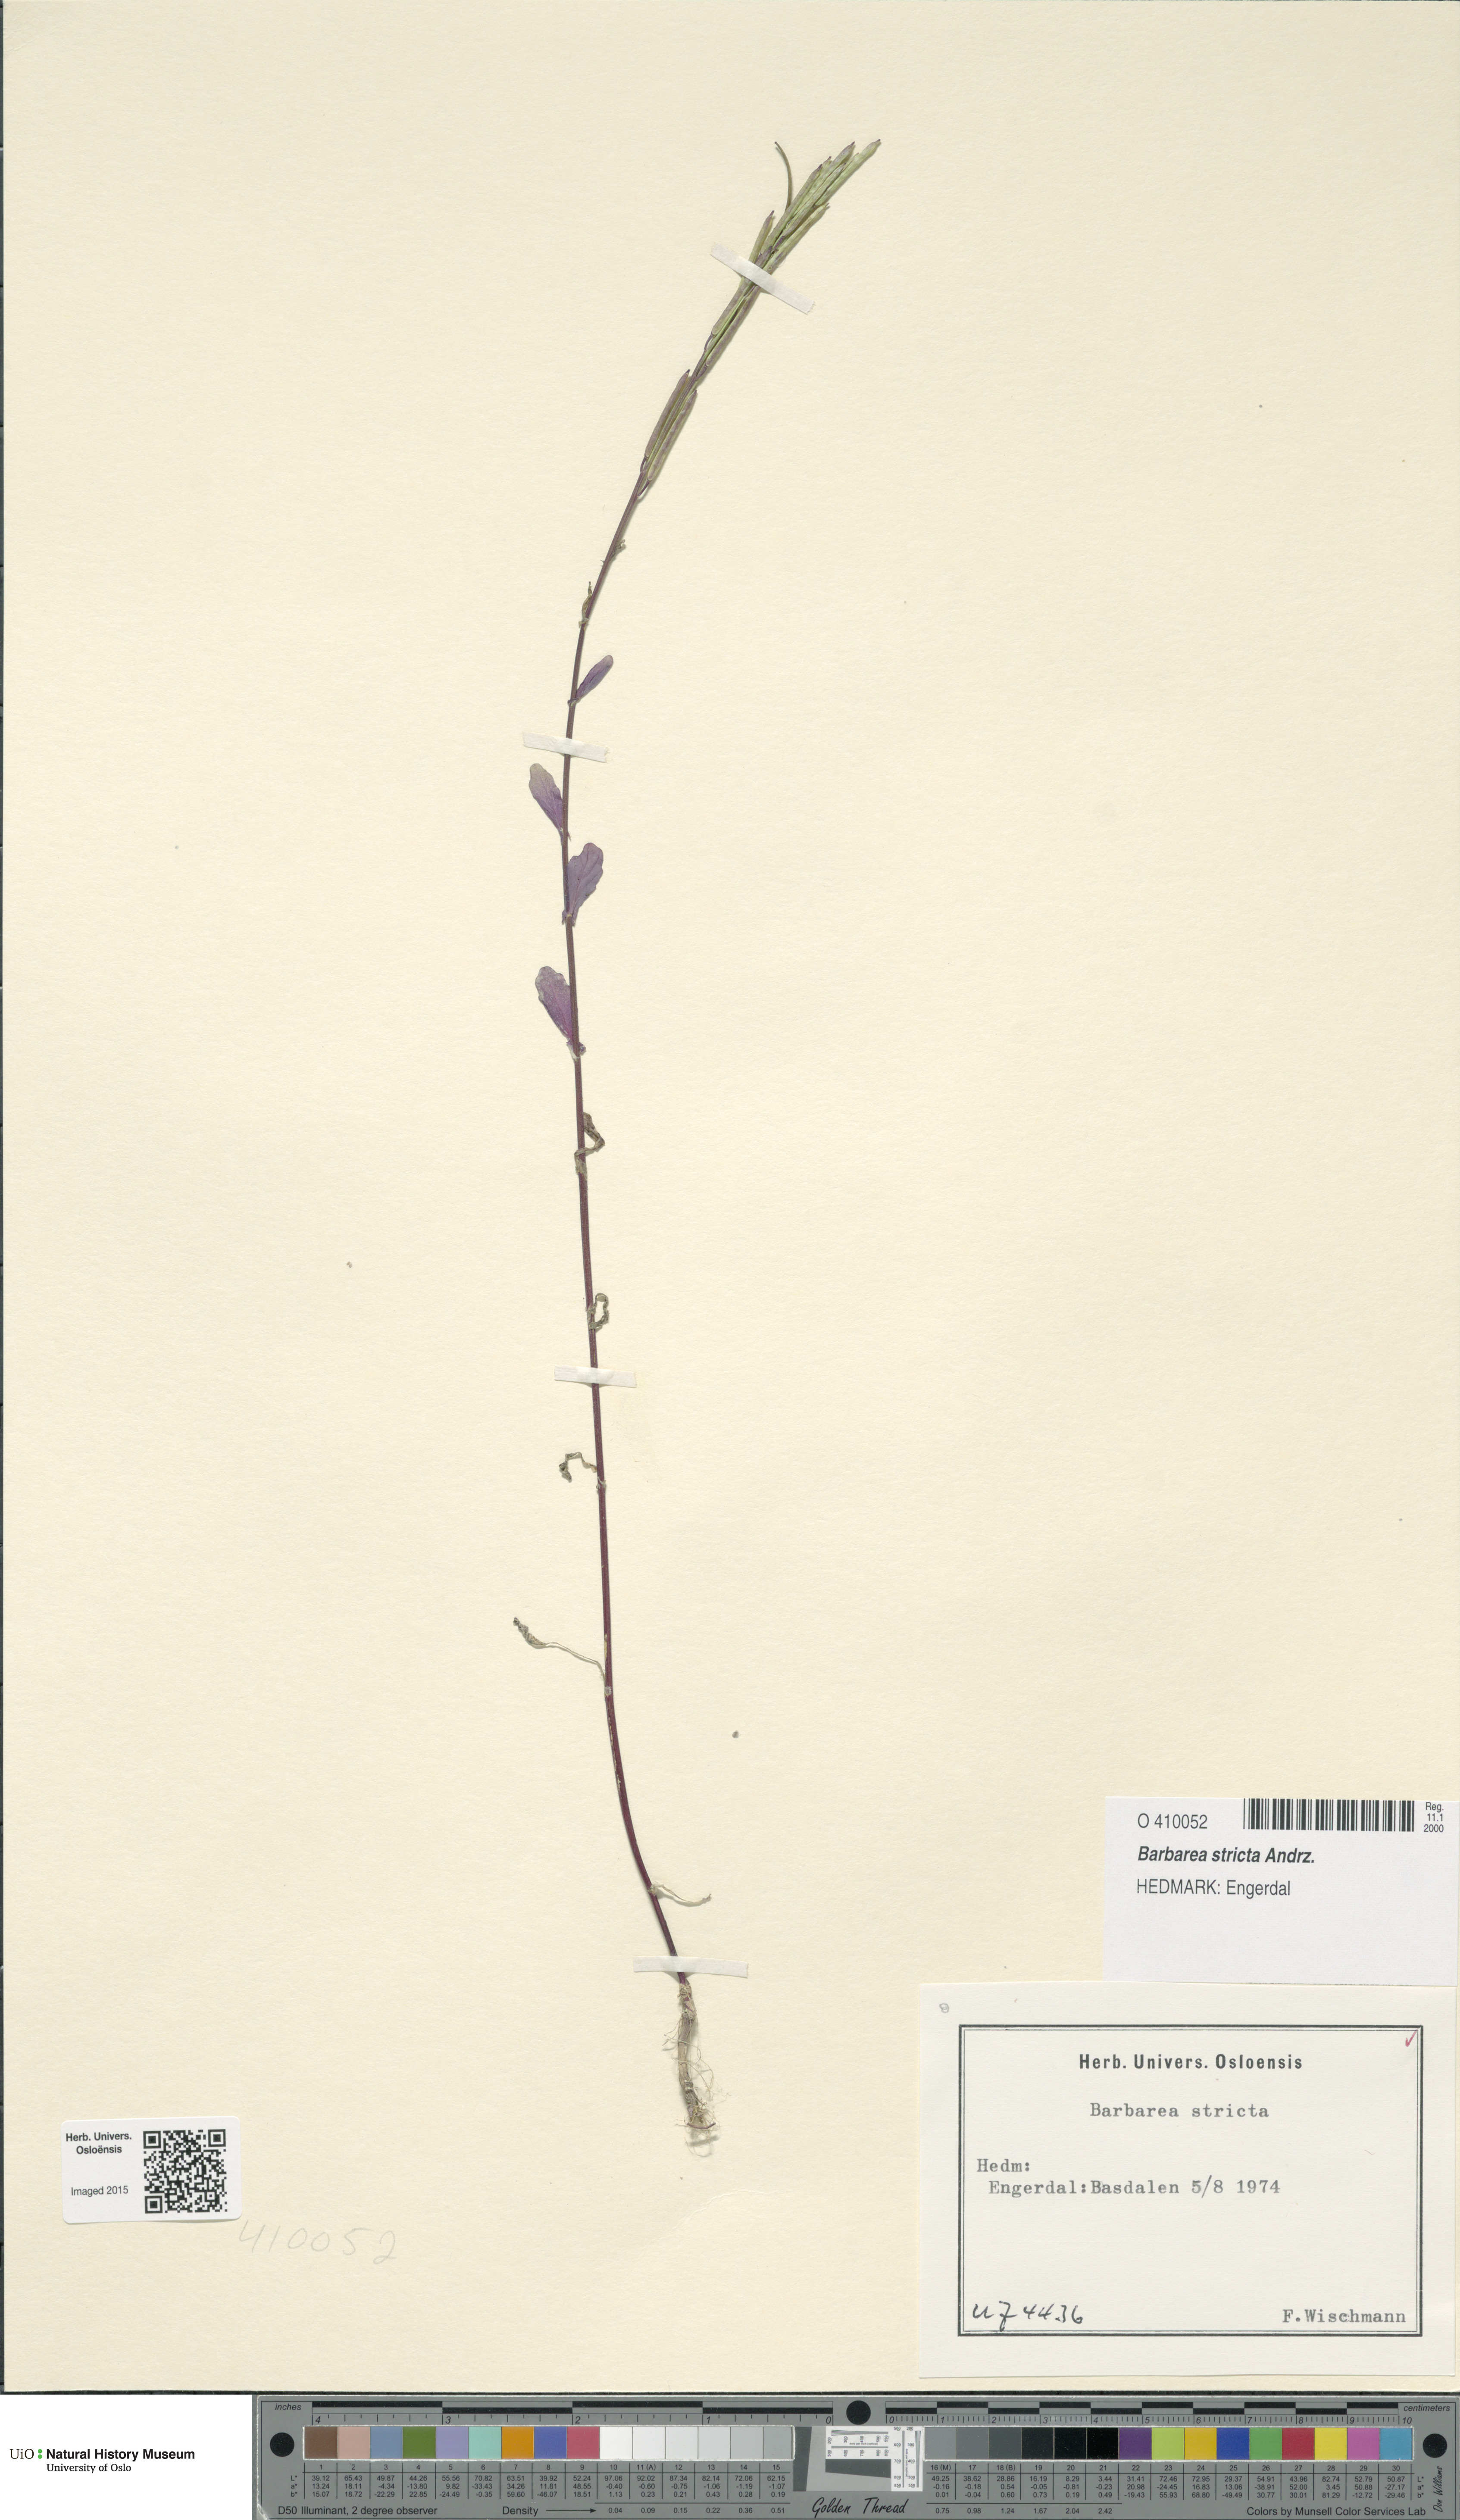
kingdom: Plantae
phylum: Tracheophyta
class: Magnoliopsida
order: Brassicales
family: Brassicaceae
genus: Barbarea
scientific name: Barbarea stricta
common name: Small-flowered winter-cress
